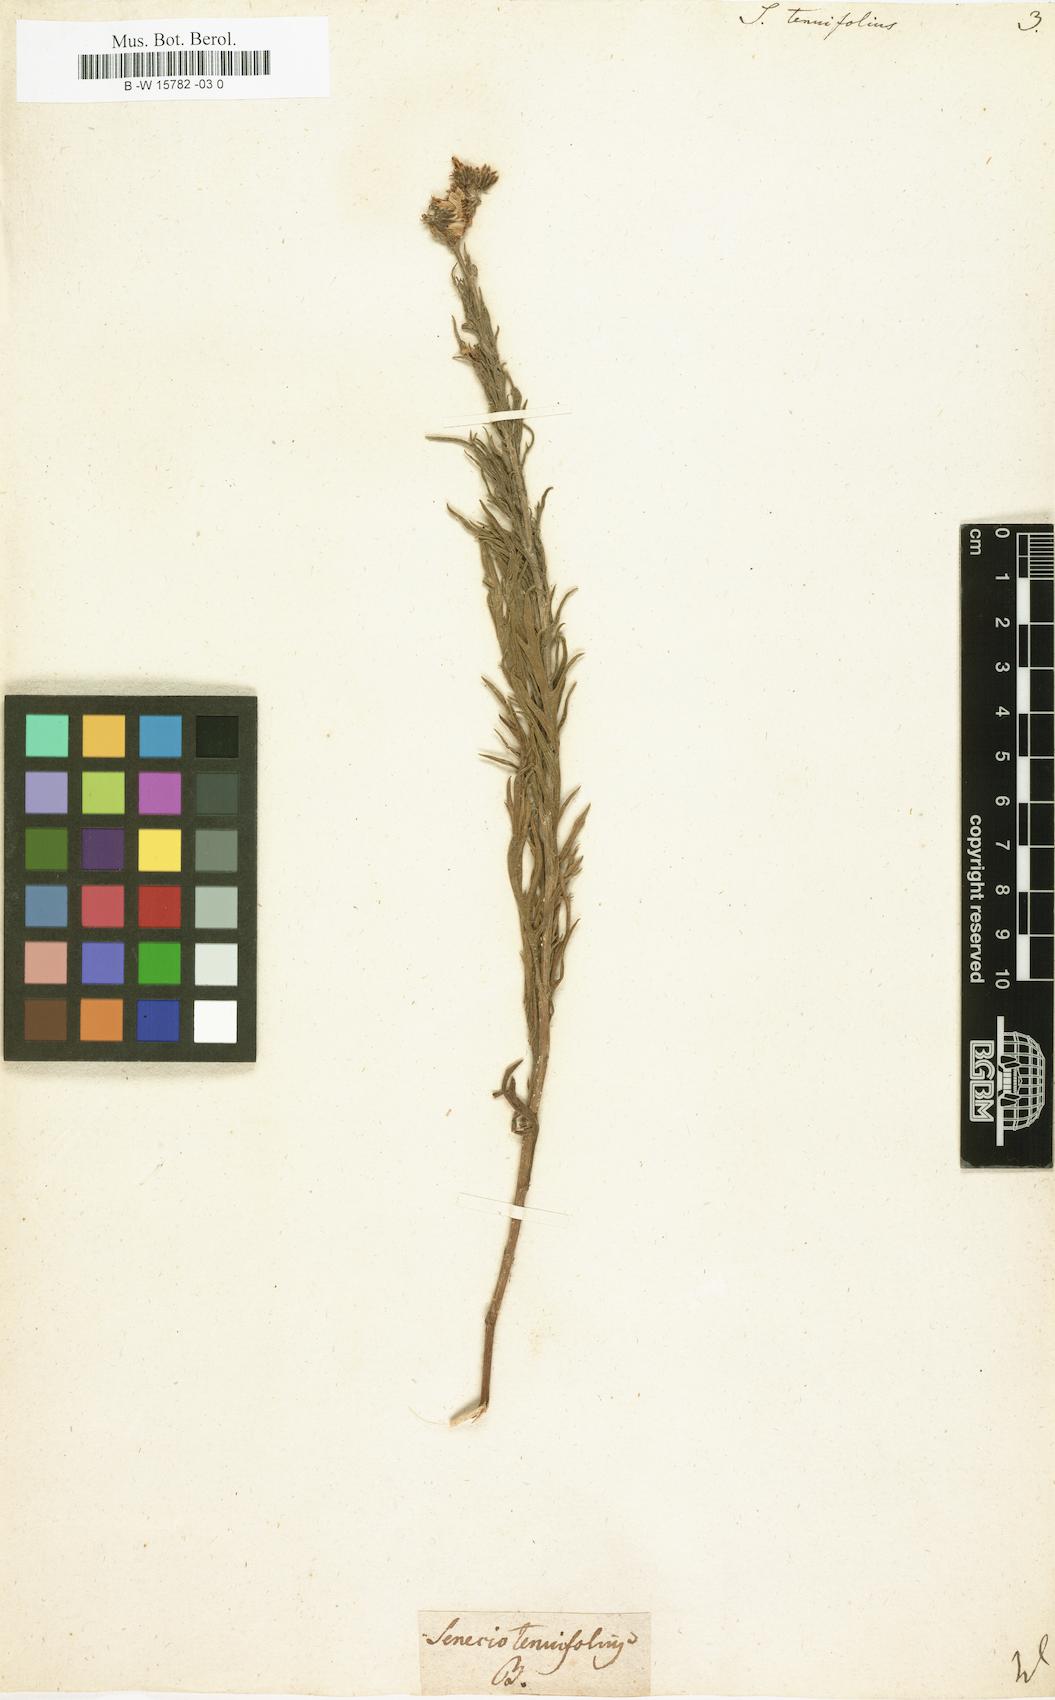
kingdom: Plantae
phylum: Tracheophyta
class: Magnoliopsida
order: Asterales
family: Asteraceae
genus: Senecio
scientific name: Senecio tenuifolius
